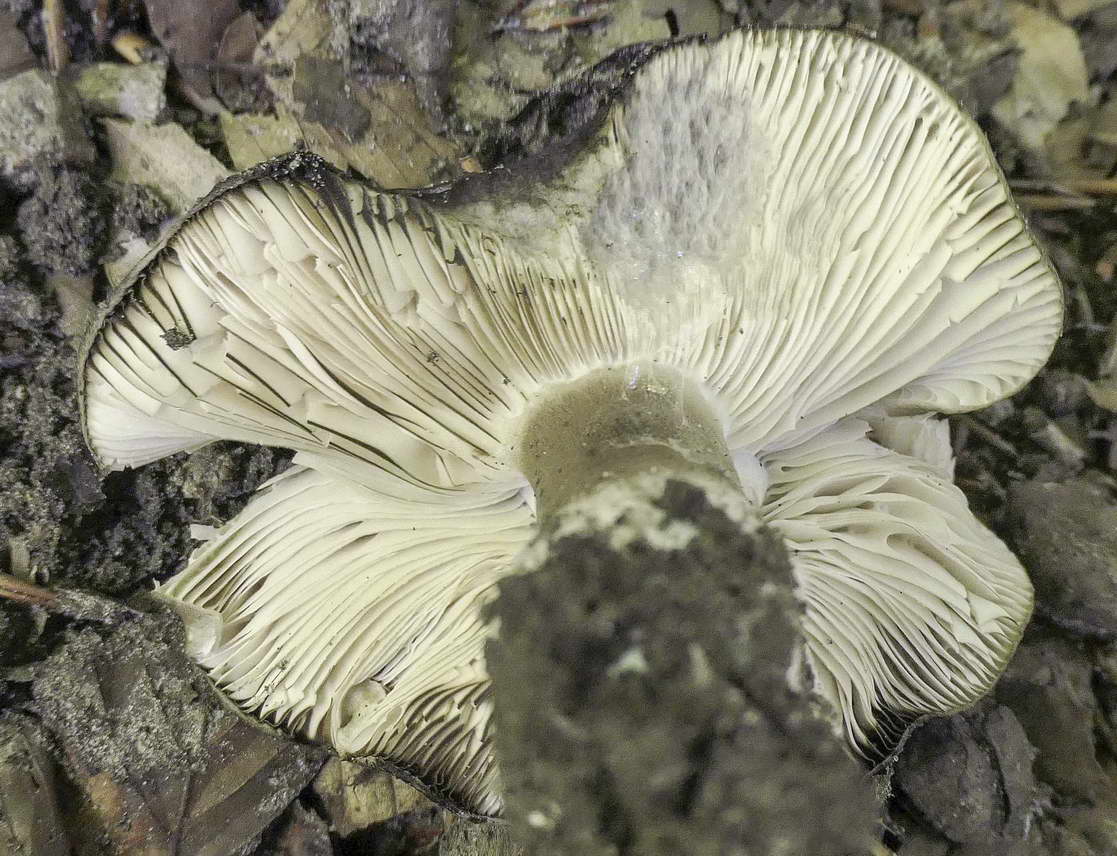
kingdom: Fungi
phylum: Basidiomycota
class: Agaricomycetes
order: Russulales
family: Russulaceae
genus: Russula
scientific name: Russula anthracina
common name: kul-skørhat
